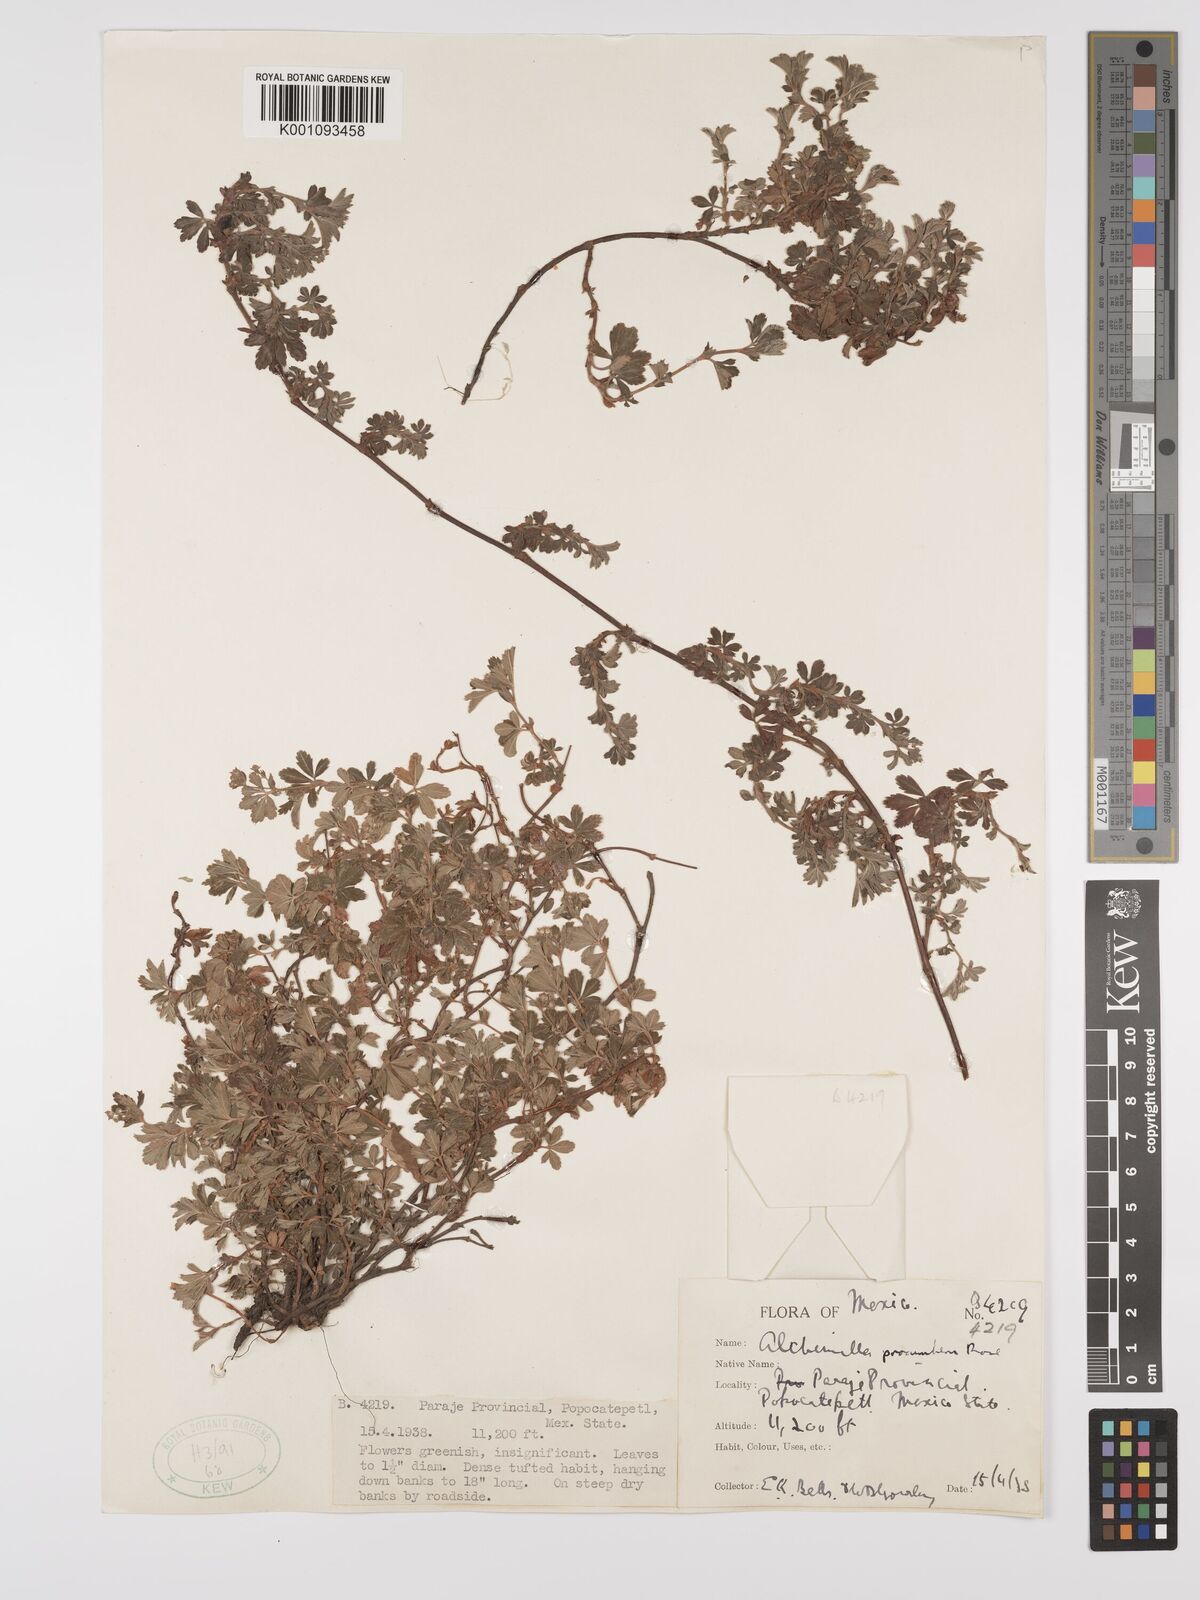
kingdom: Plantae
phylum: Tracheophyta
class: Magnoliopsida
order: Rosales
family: Rosaceae
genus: Lachemilla
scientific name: Lachemilla procumbens
